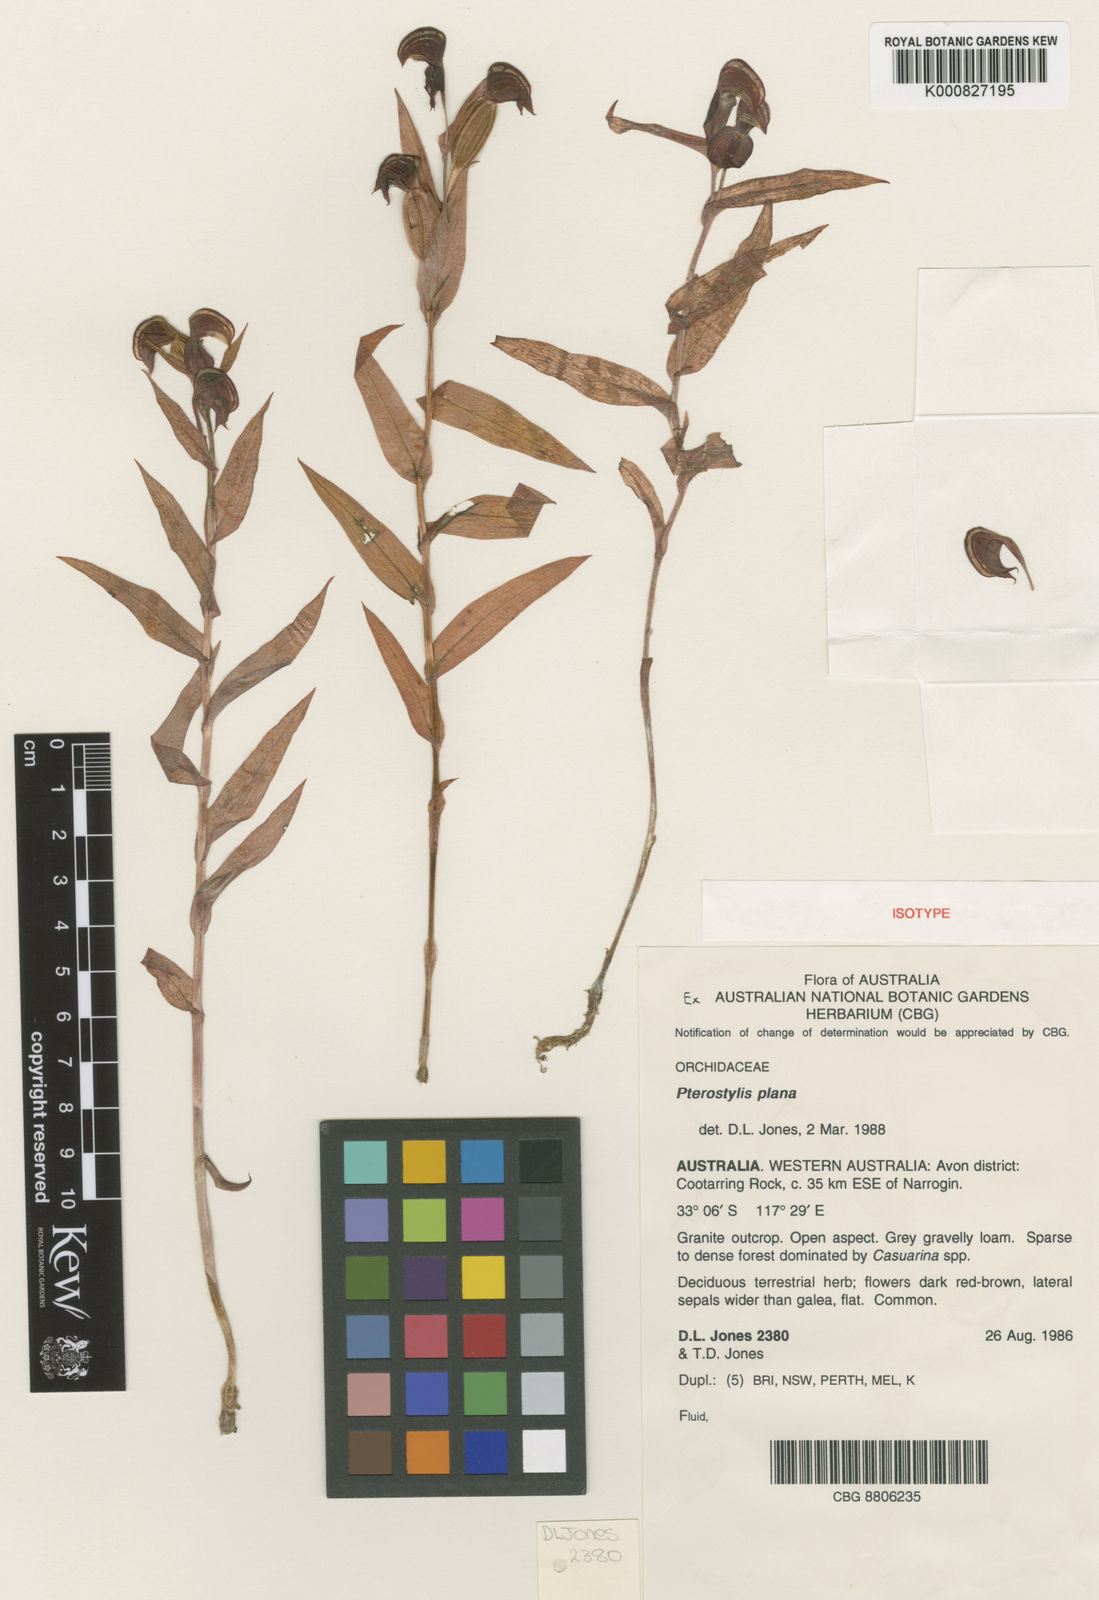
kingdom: Plantae
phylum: Tracheophyta
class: Liliopsida
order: Asparagales
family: Orchidaceae
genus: Pterostylis
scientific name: Pterostylis
